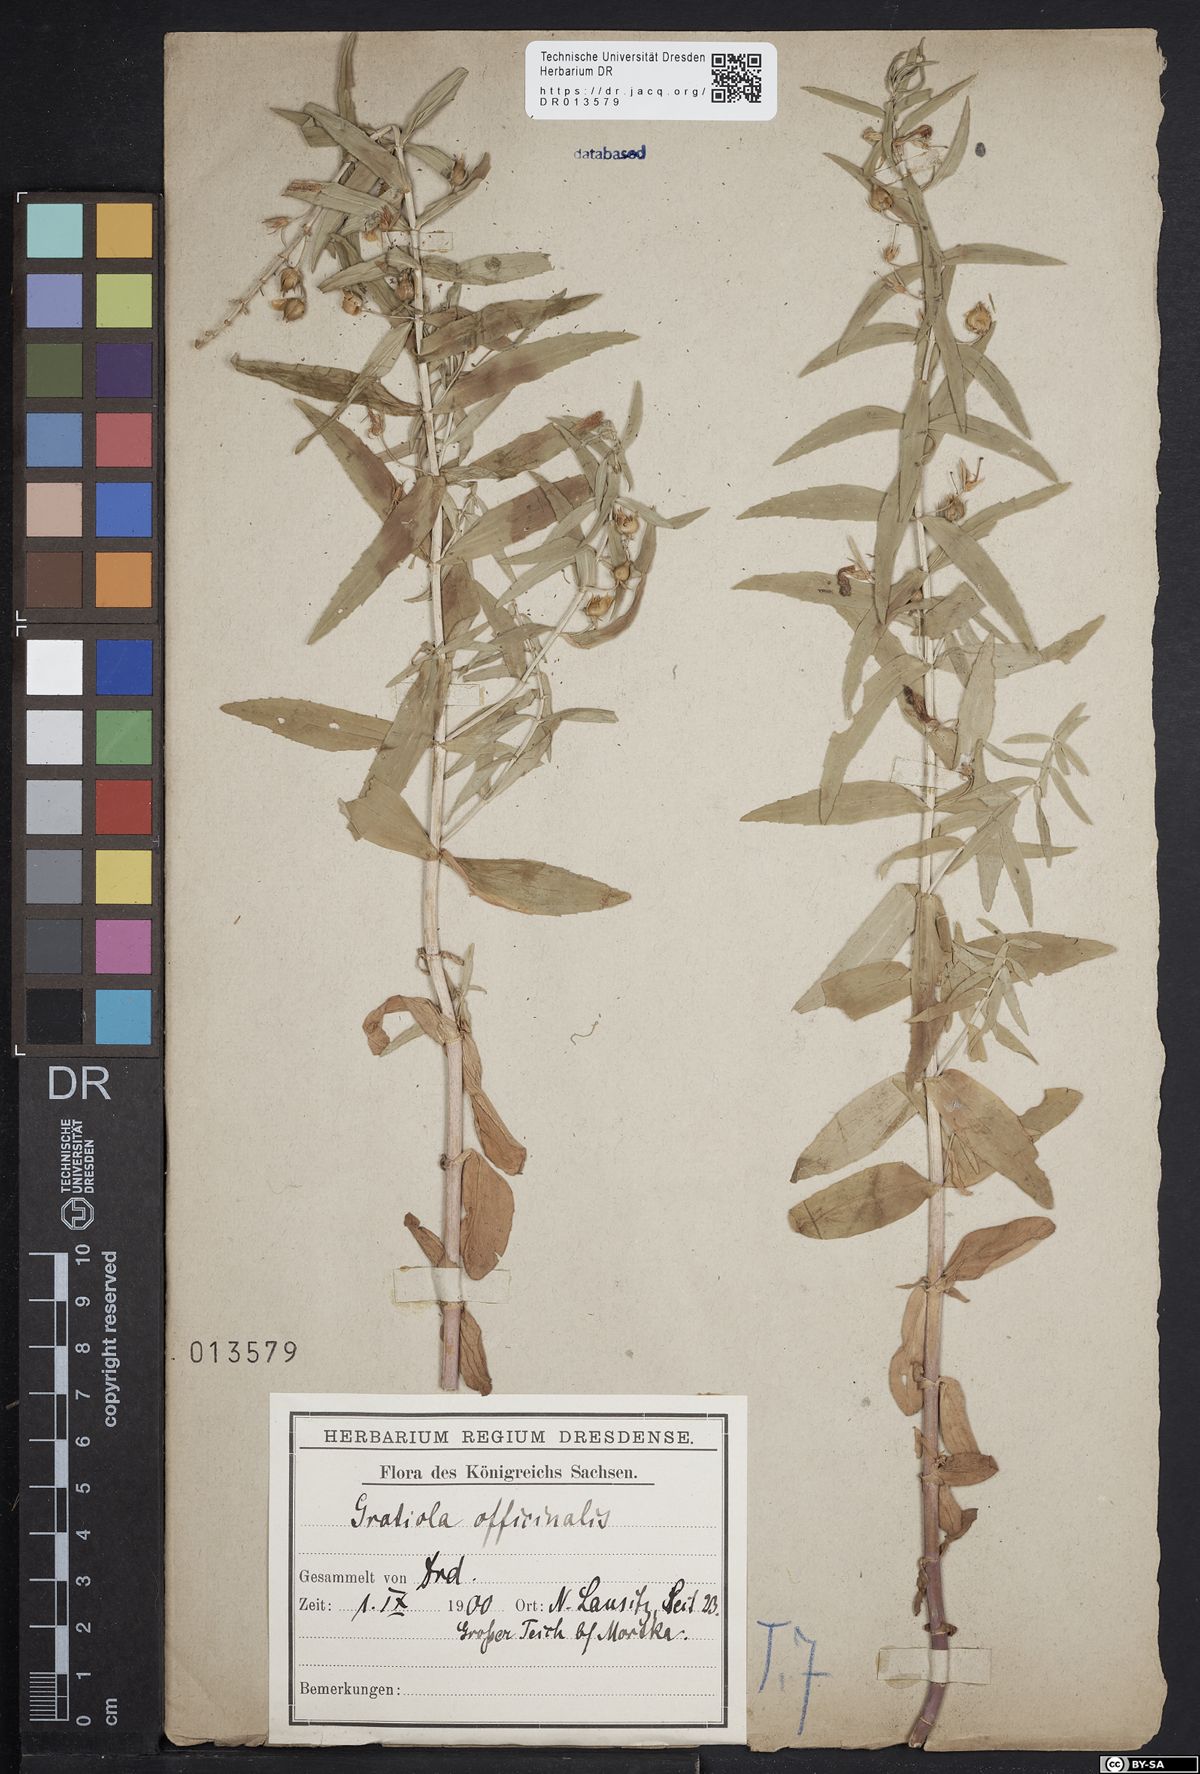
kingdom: Plantae
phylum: Tracheophyta
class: Magnoliopsida
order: Lamiales
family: Plantaginaceae
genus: Gratiola
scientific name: Gratiola officinalis
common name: Gratiola
